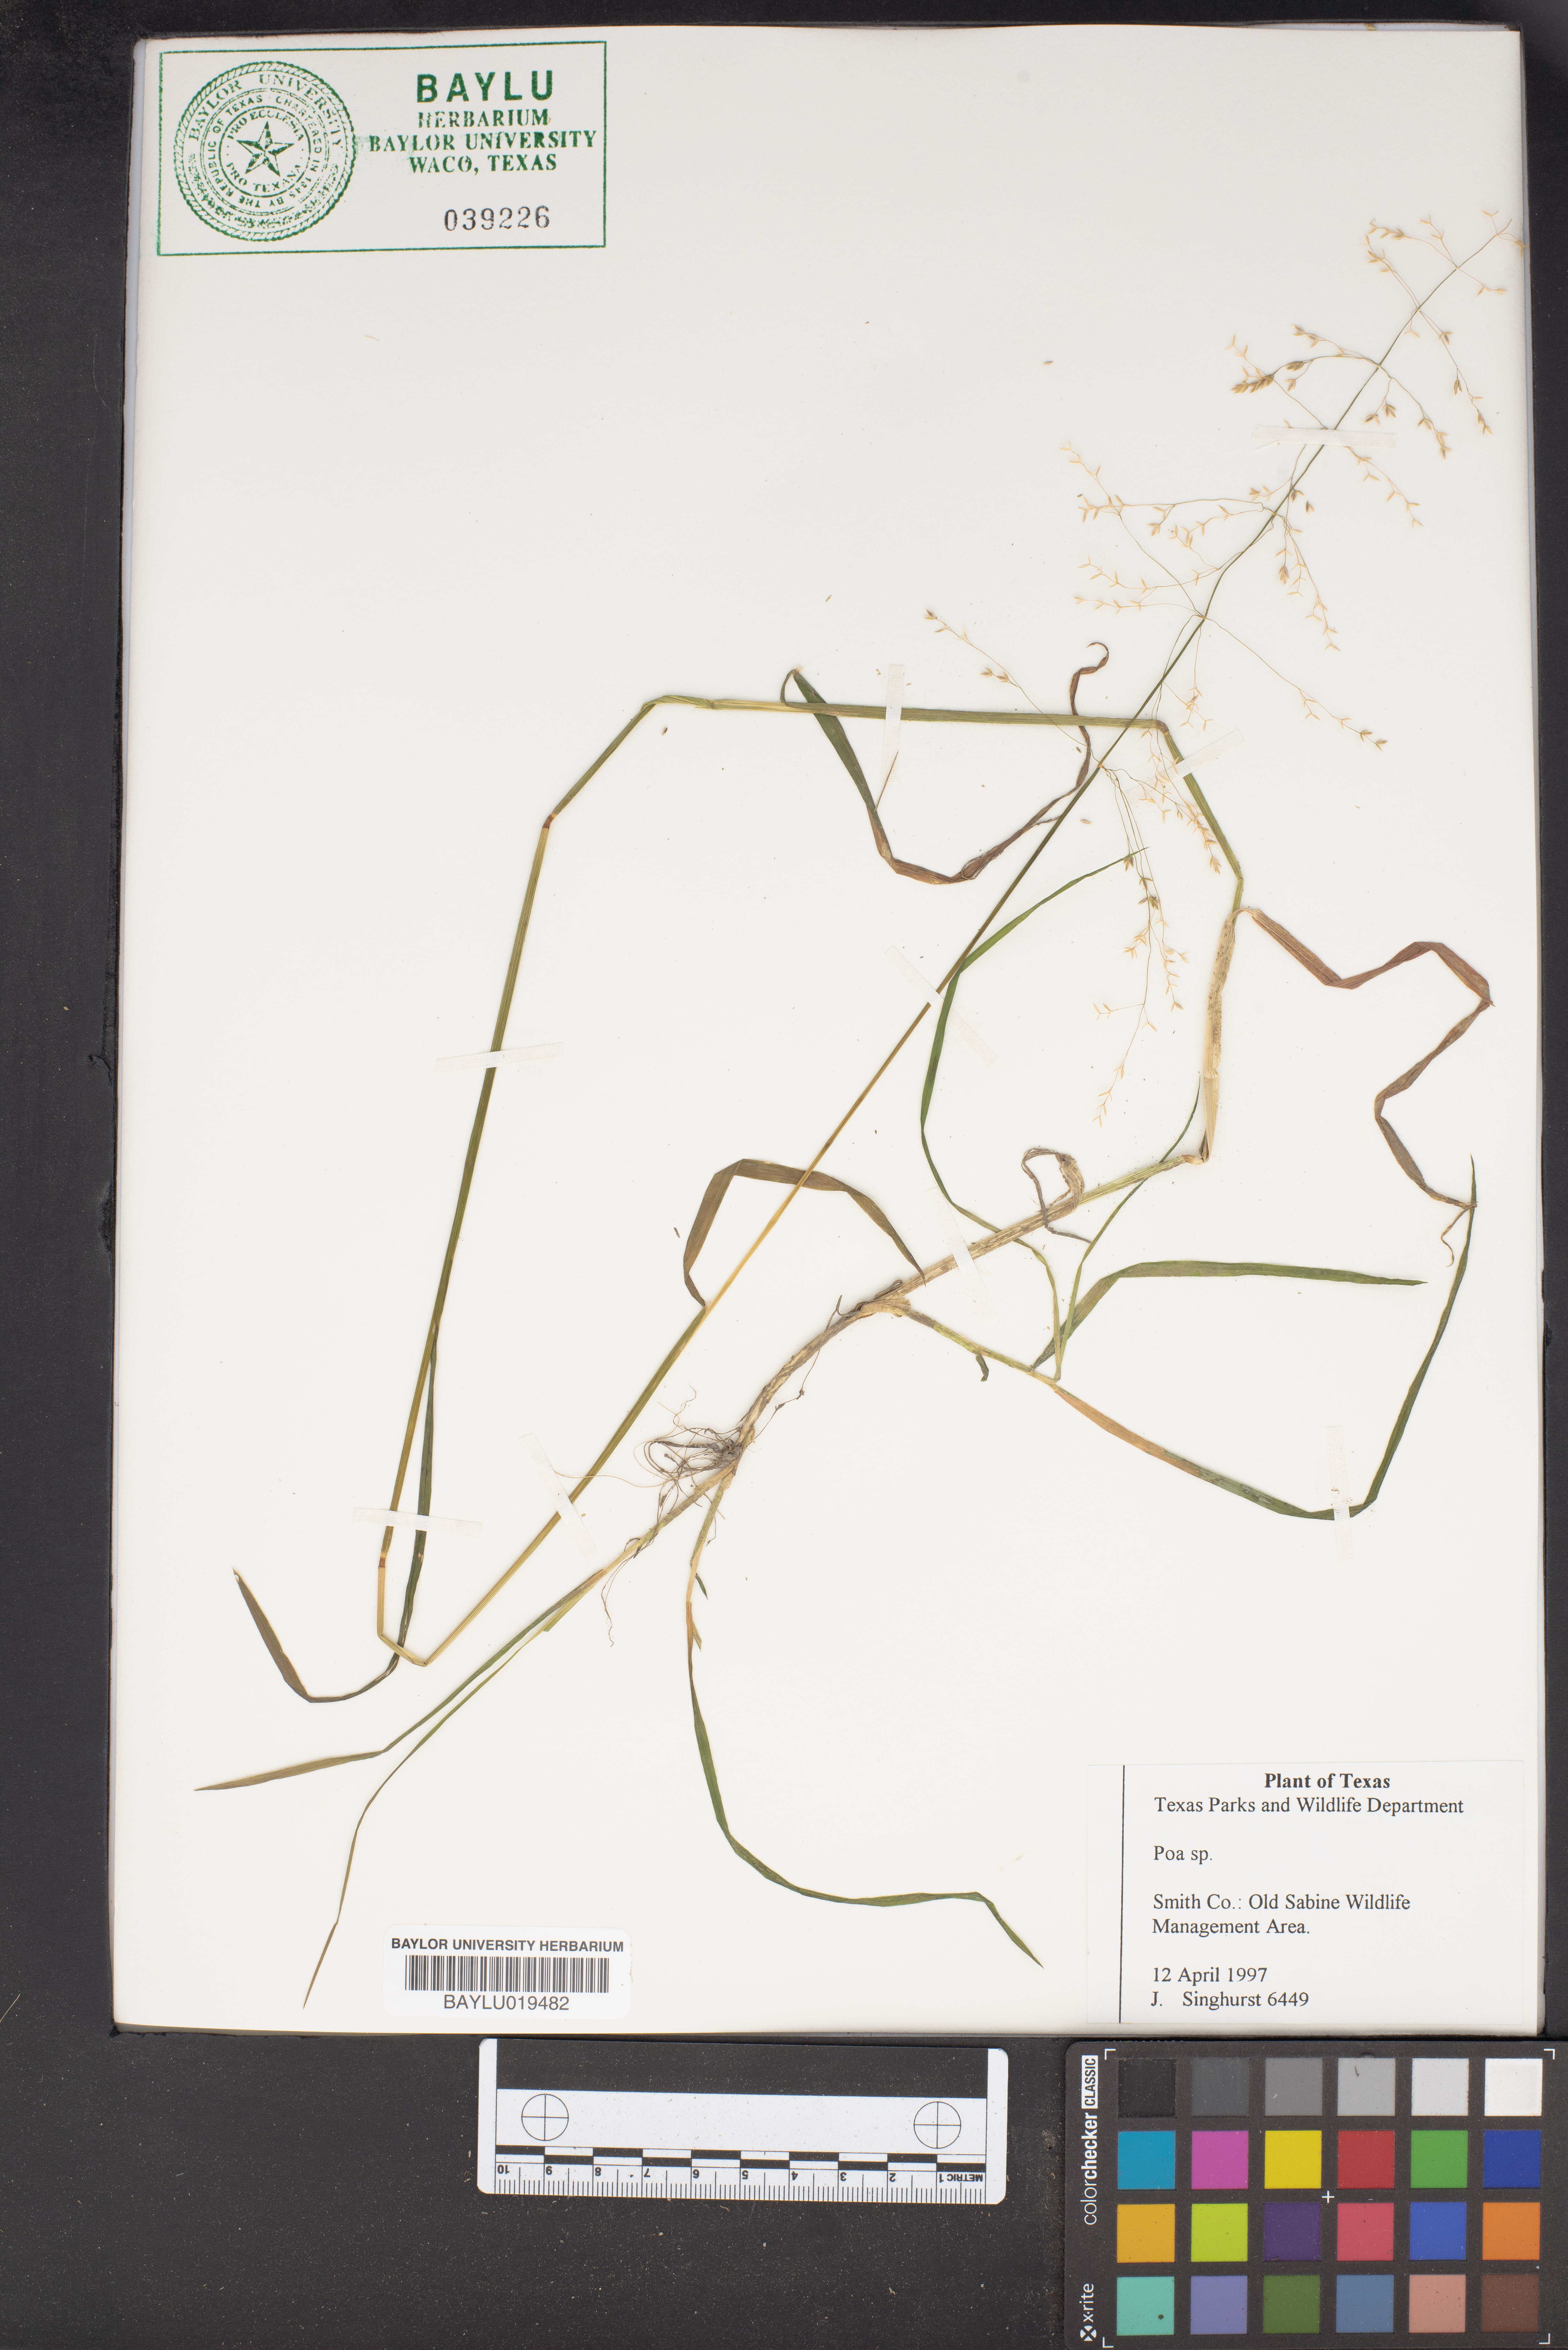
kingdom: Plantae
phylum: Tracheophyta
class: Liliopsida
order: Poales
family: Poaceae
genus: Poa
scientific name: Poa
